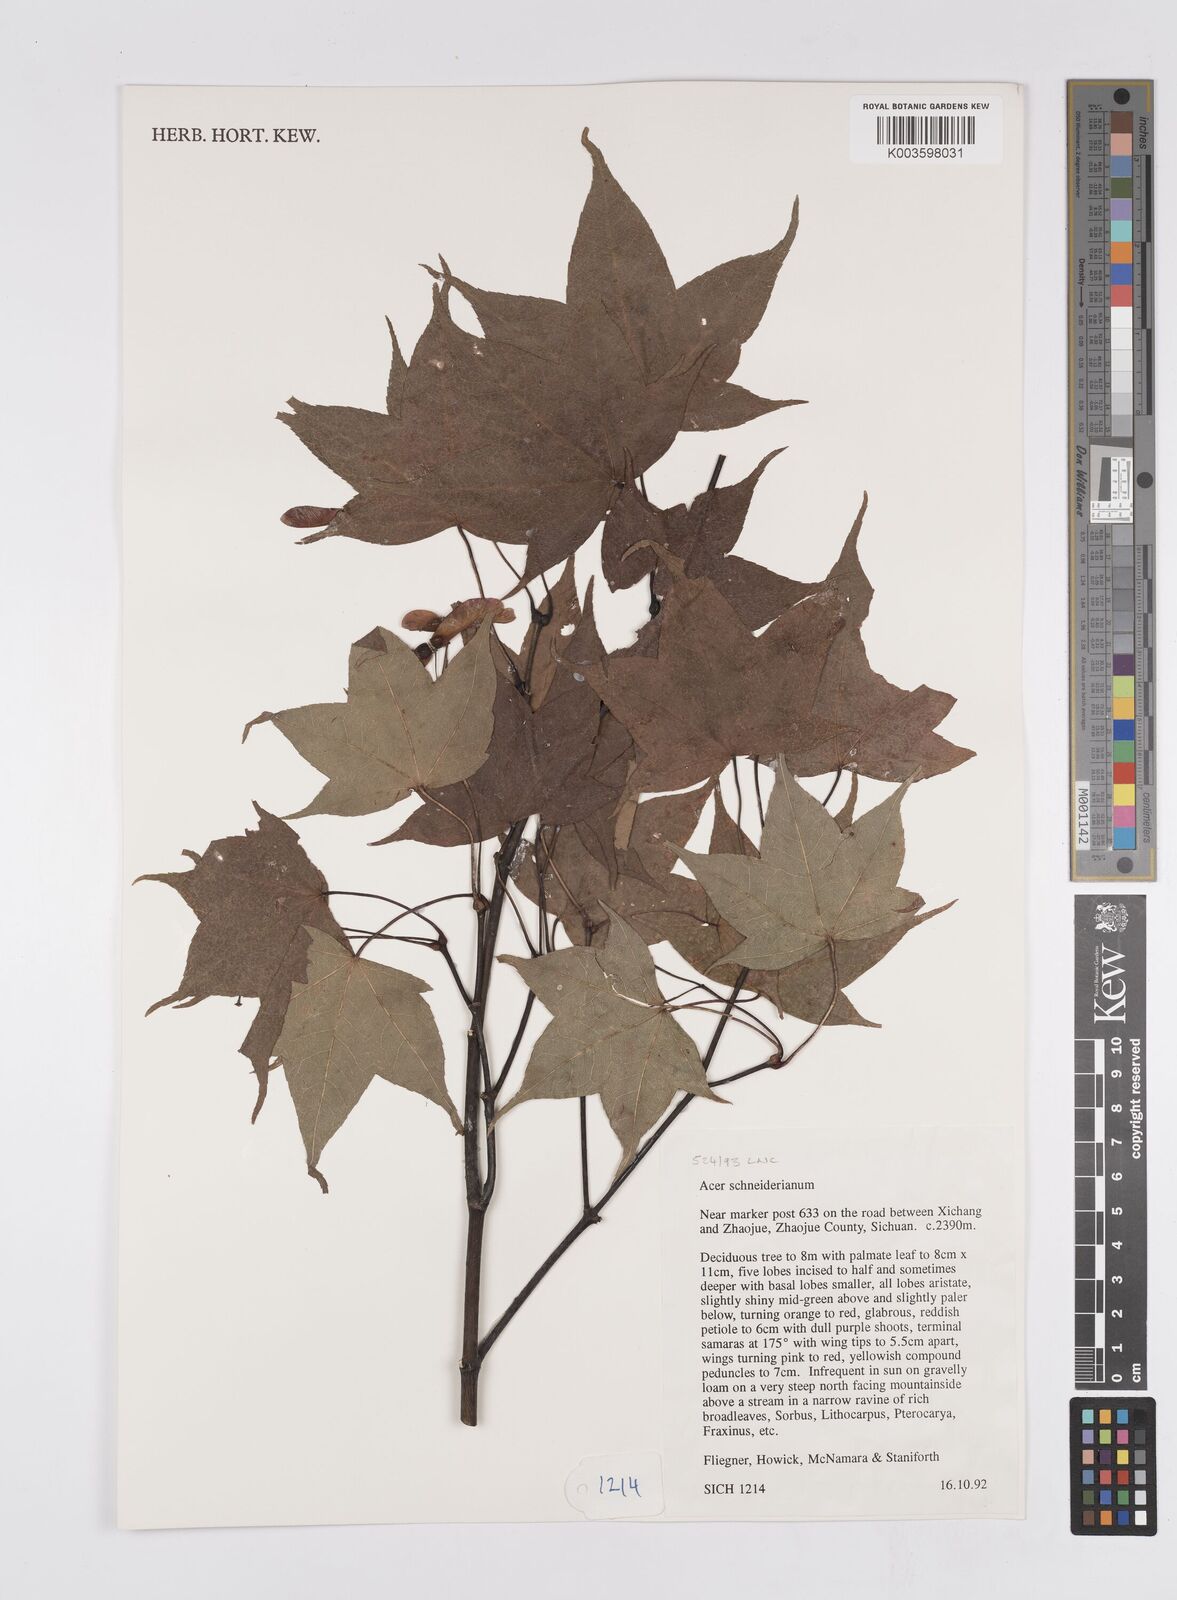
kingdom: Plantae
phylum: Tracheophyta
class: Magnoliopsida
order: Sapindales
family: Sapindaceae
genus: Acer
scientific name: Acer oliverianum
